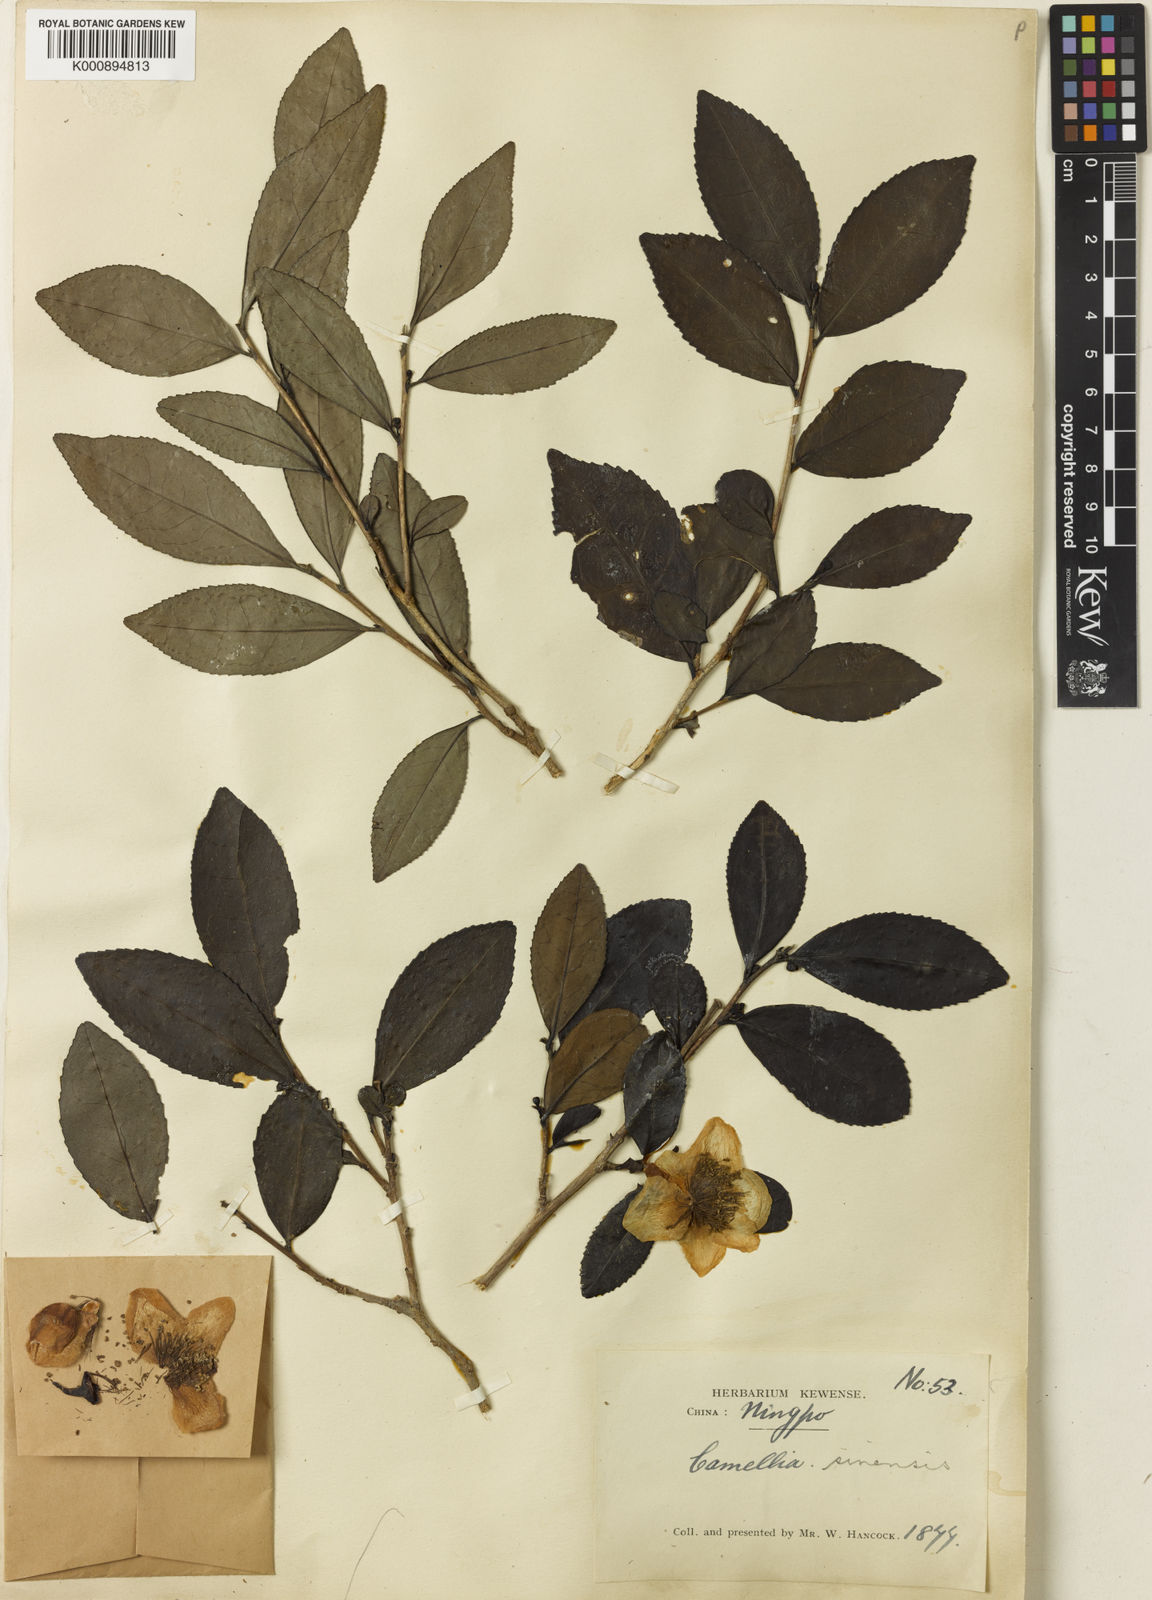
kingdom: Plantae
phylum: Tracheophyta
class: Magnoliopsida
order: Ericales
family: Theaceae
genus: Camellia
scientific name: Camellia sinensis
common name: Tea
